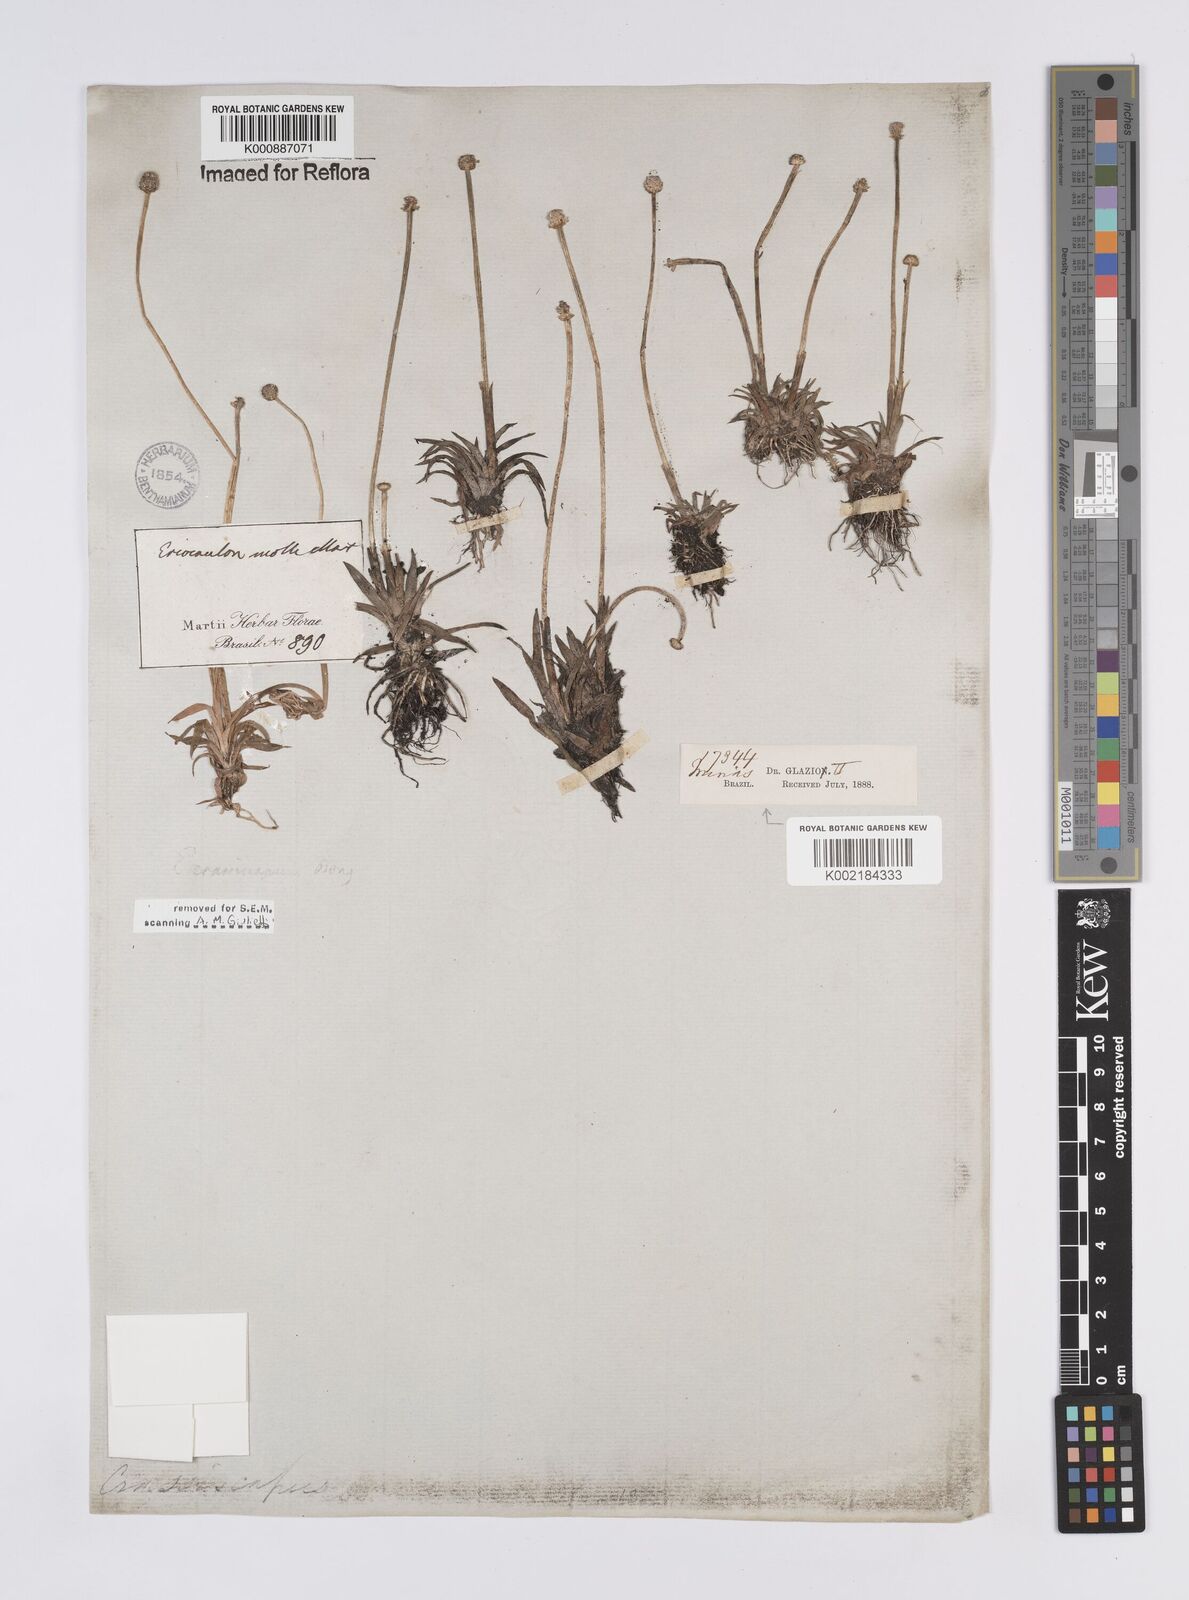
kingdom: Plantae
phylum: Tracheophyta
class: Liliopsida
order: Poales
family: Eriocaulaceae
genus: Eriocaulon
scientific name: Eriocaulon crassiscapum
